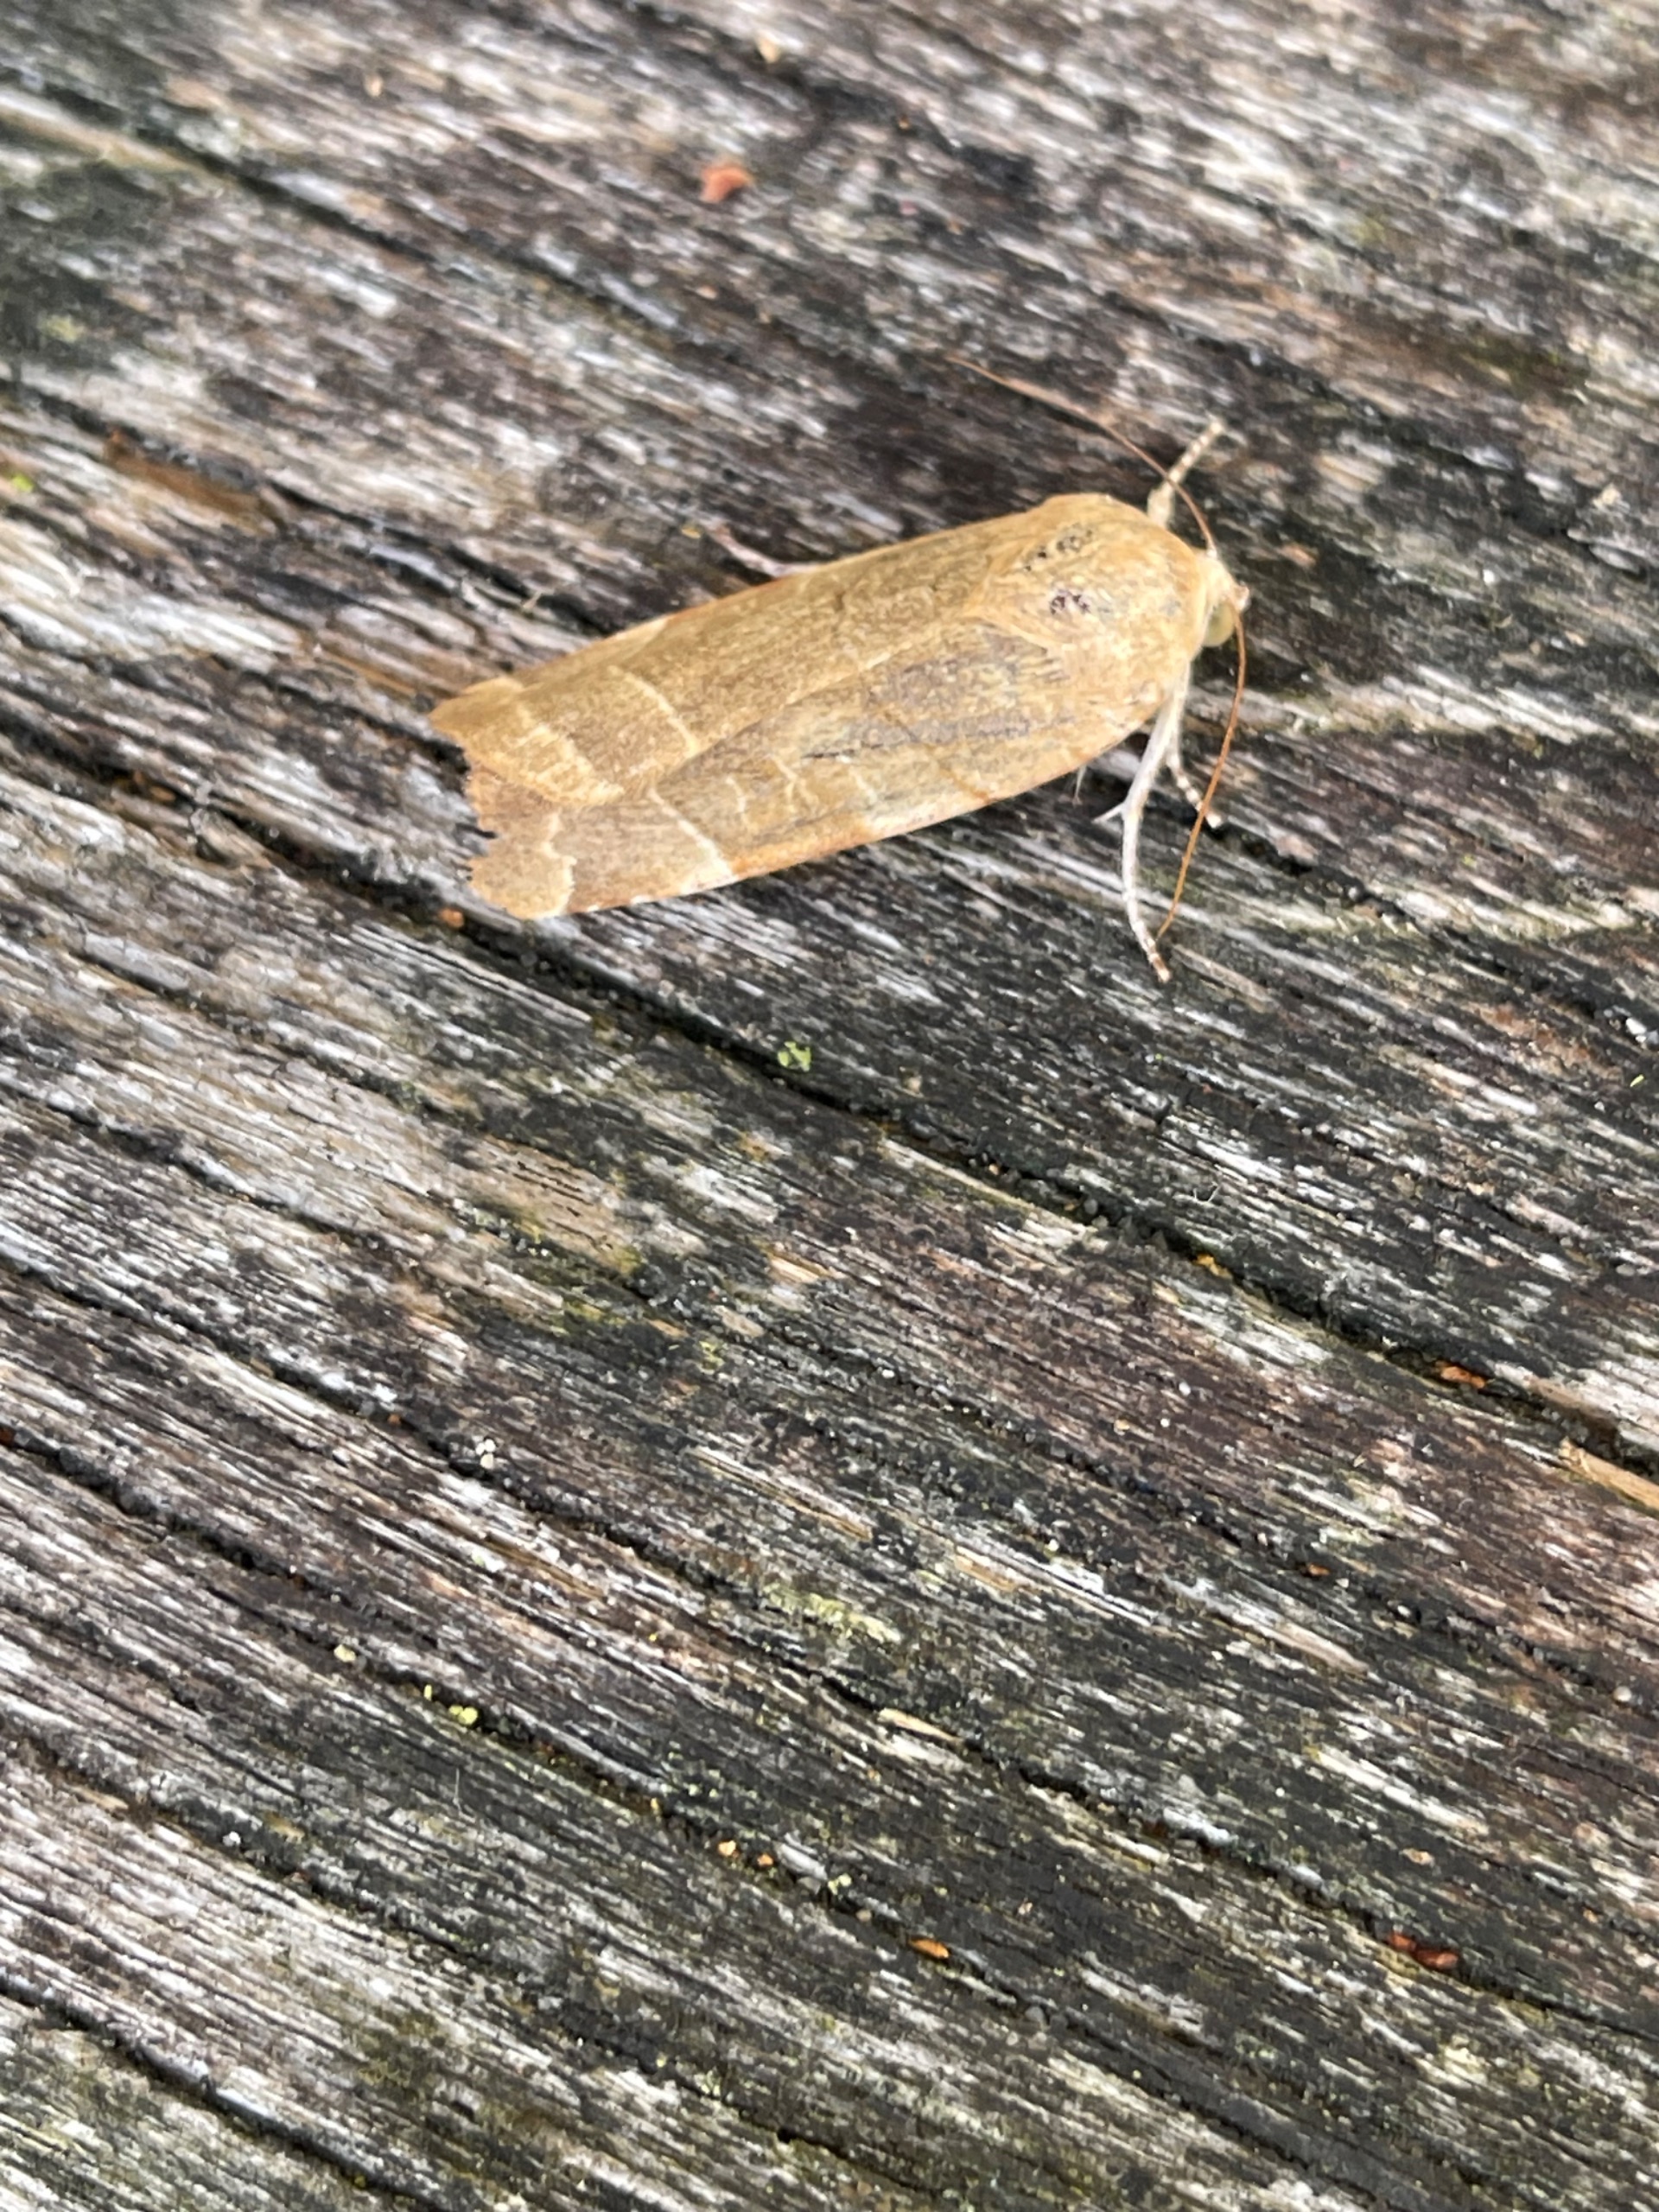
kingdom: Animalia
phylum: Arthropoda
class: Insecta
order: Lepidoptera
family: Noctuidae
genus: Noctua
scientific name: Noctua fimbriata
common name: Gul båndugle
